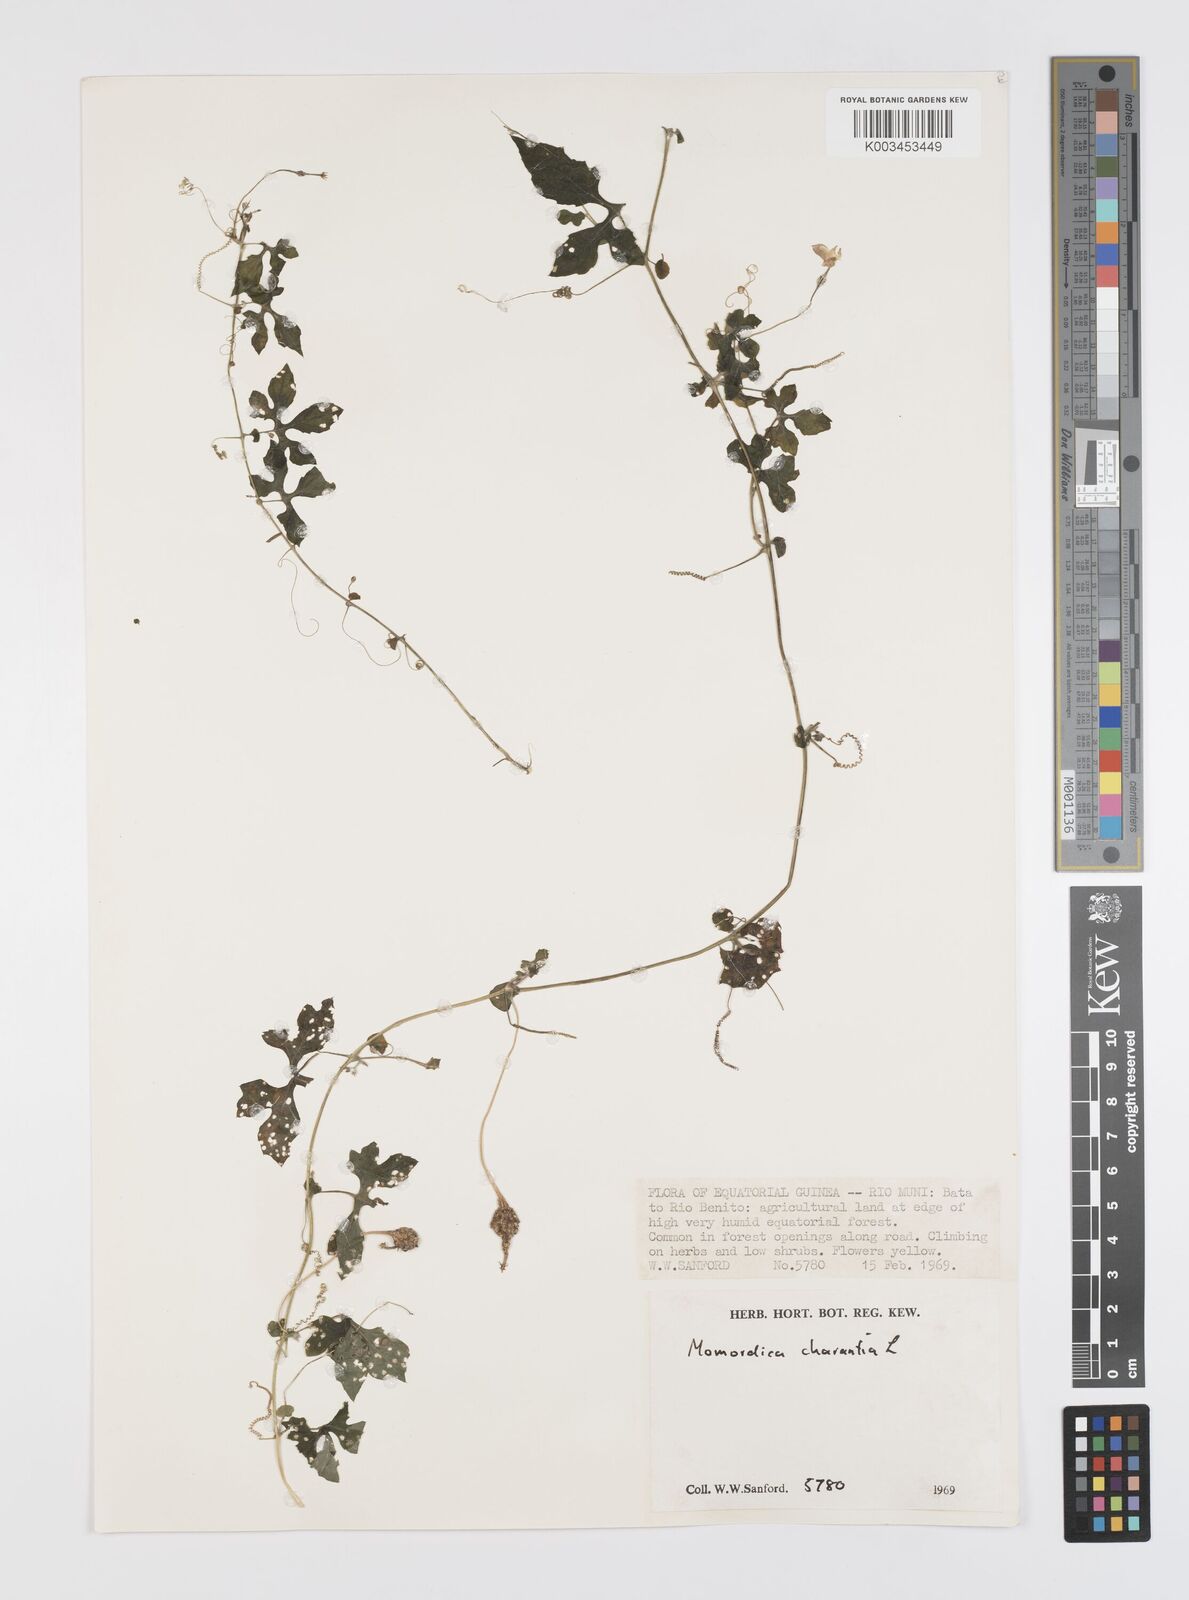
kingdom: Plantae
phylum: Tracheophyta
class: Magnoliopsida
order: Cucurbitales
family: Cucurbitaceae
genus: Momordica
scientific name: Momordica charantia
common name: Balsampear
